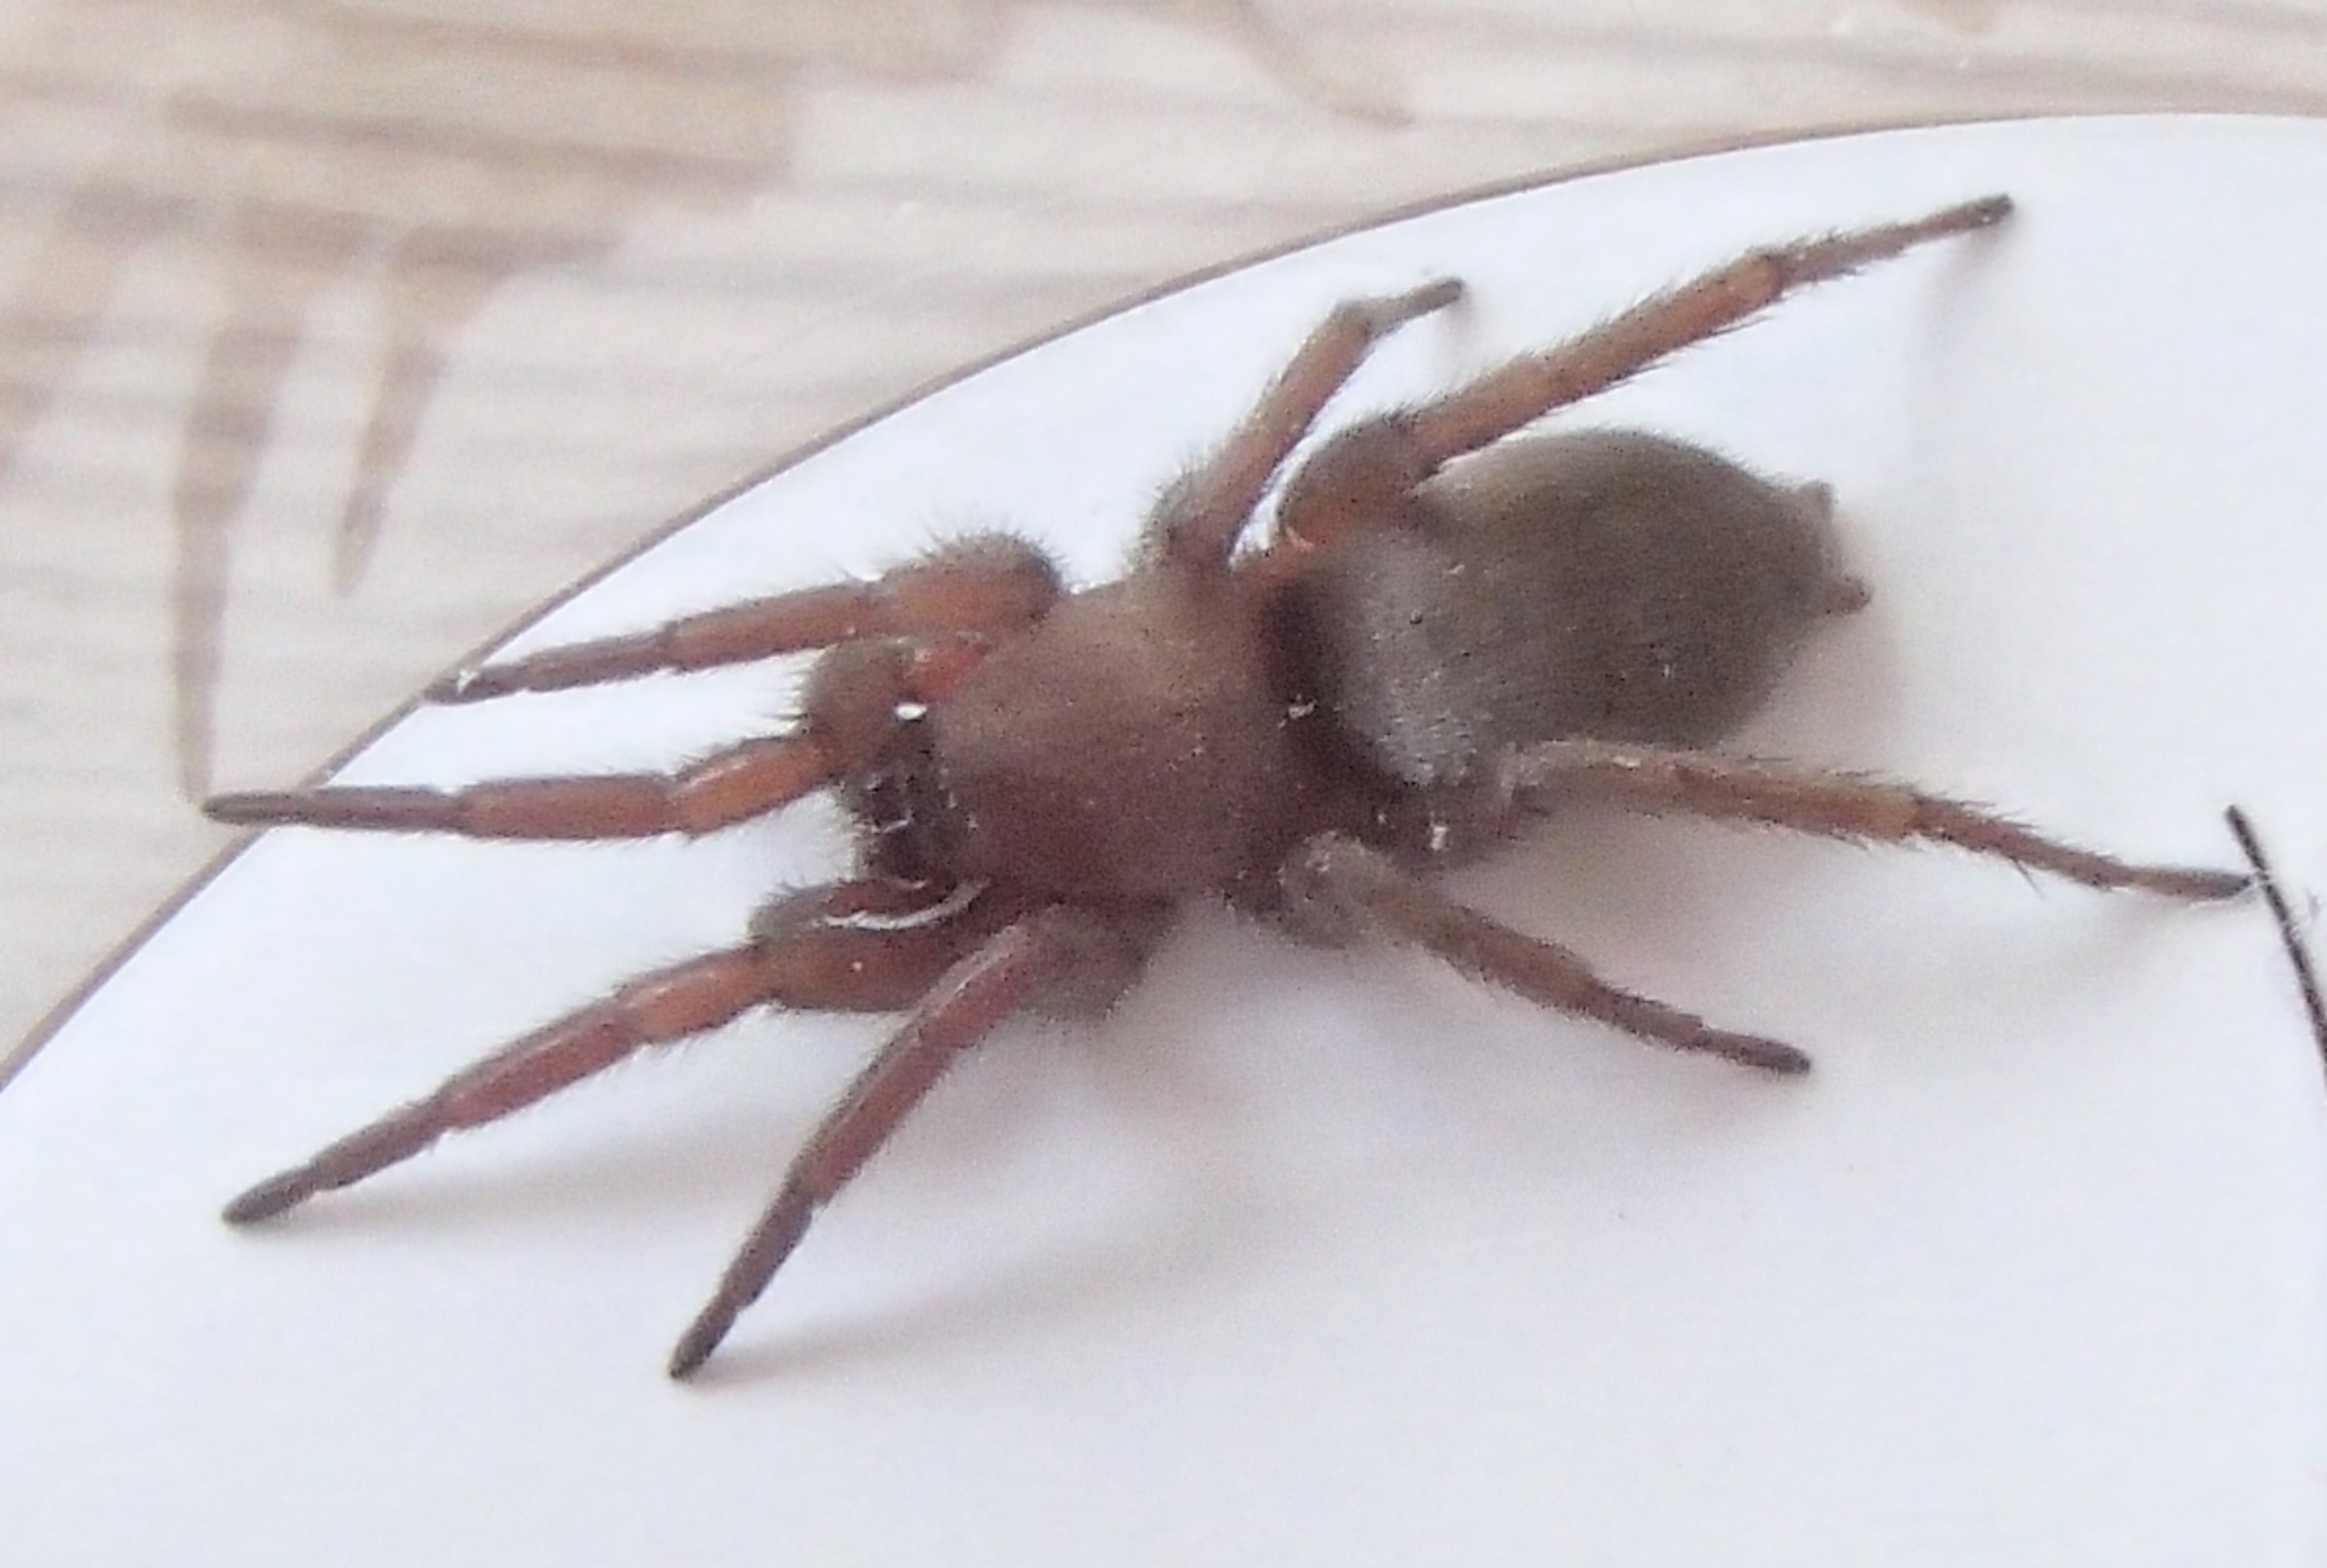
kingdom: Animalia
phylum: Arthropoda
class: Arachnida
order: Araneae
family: Gnaphosidae
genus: Scotophaeus
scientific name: Scotophaeus
